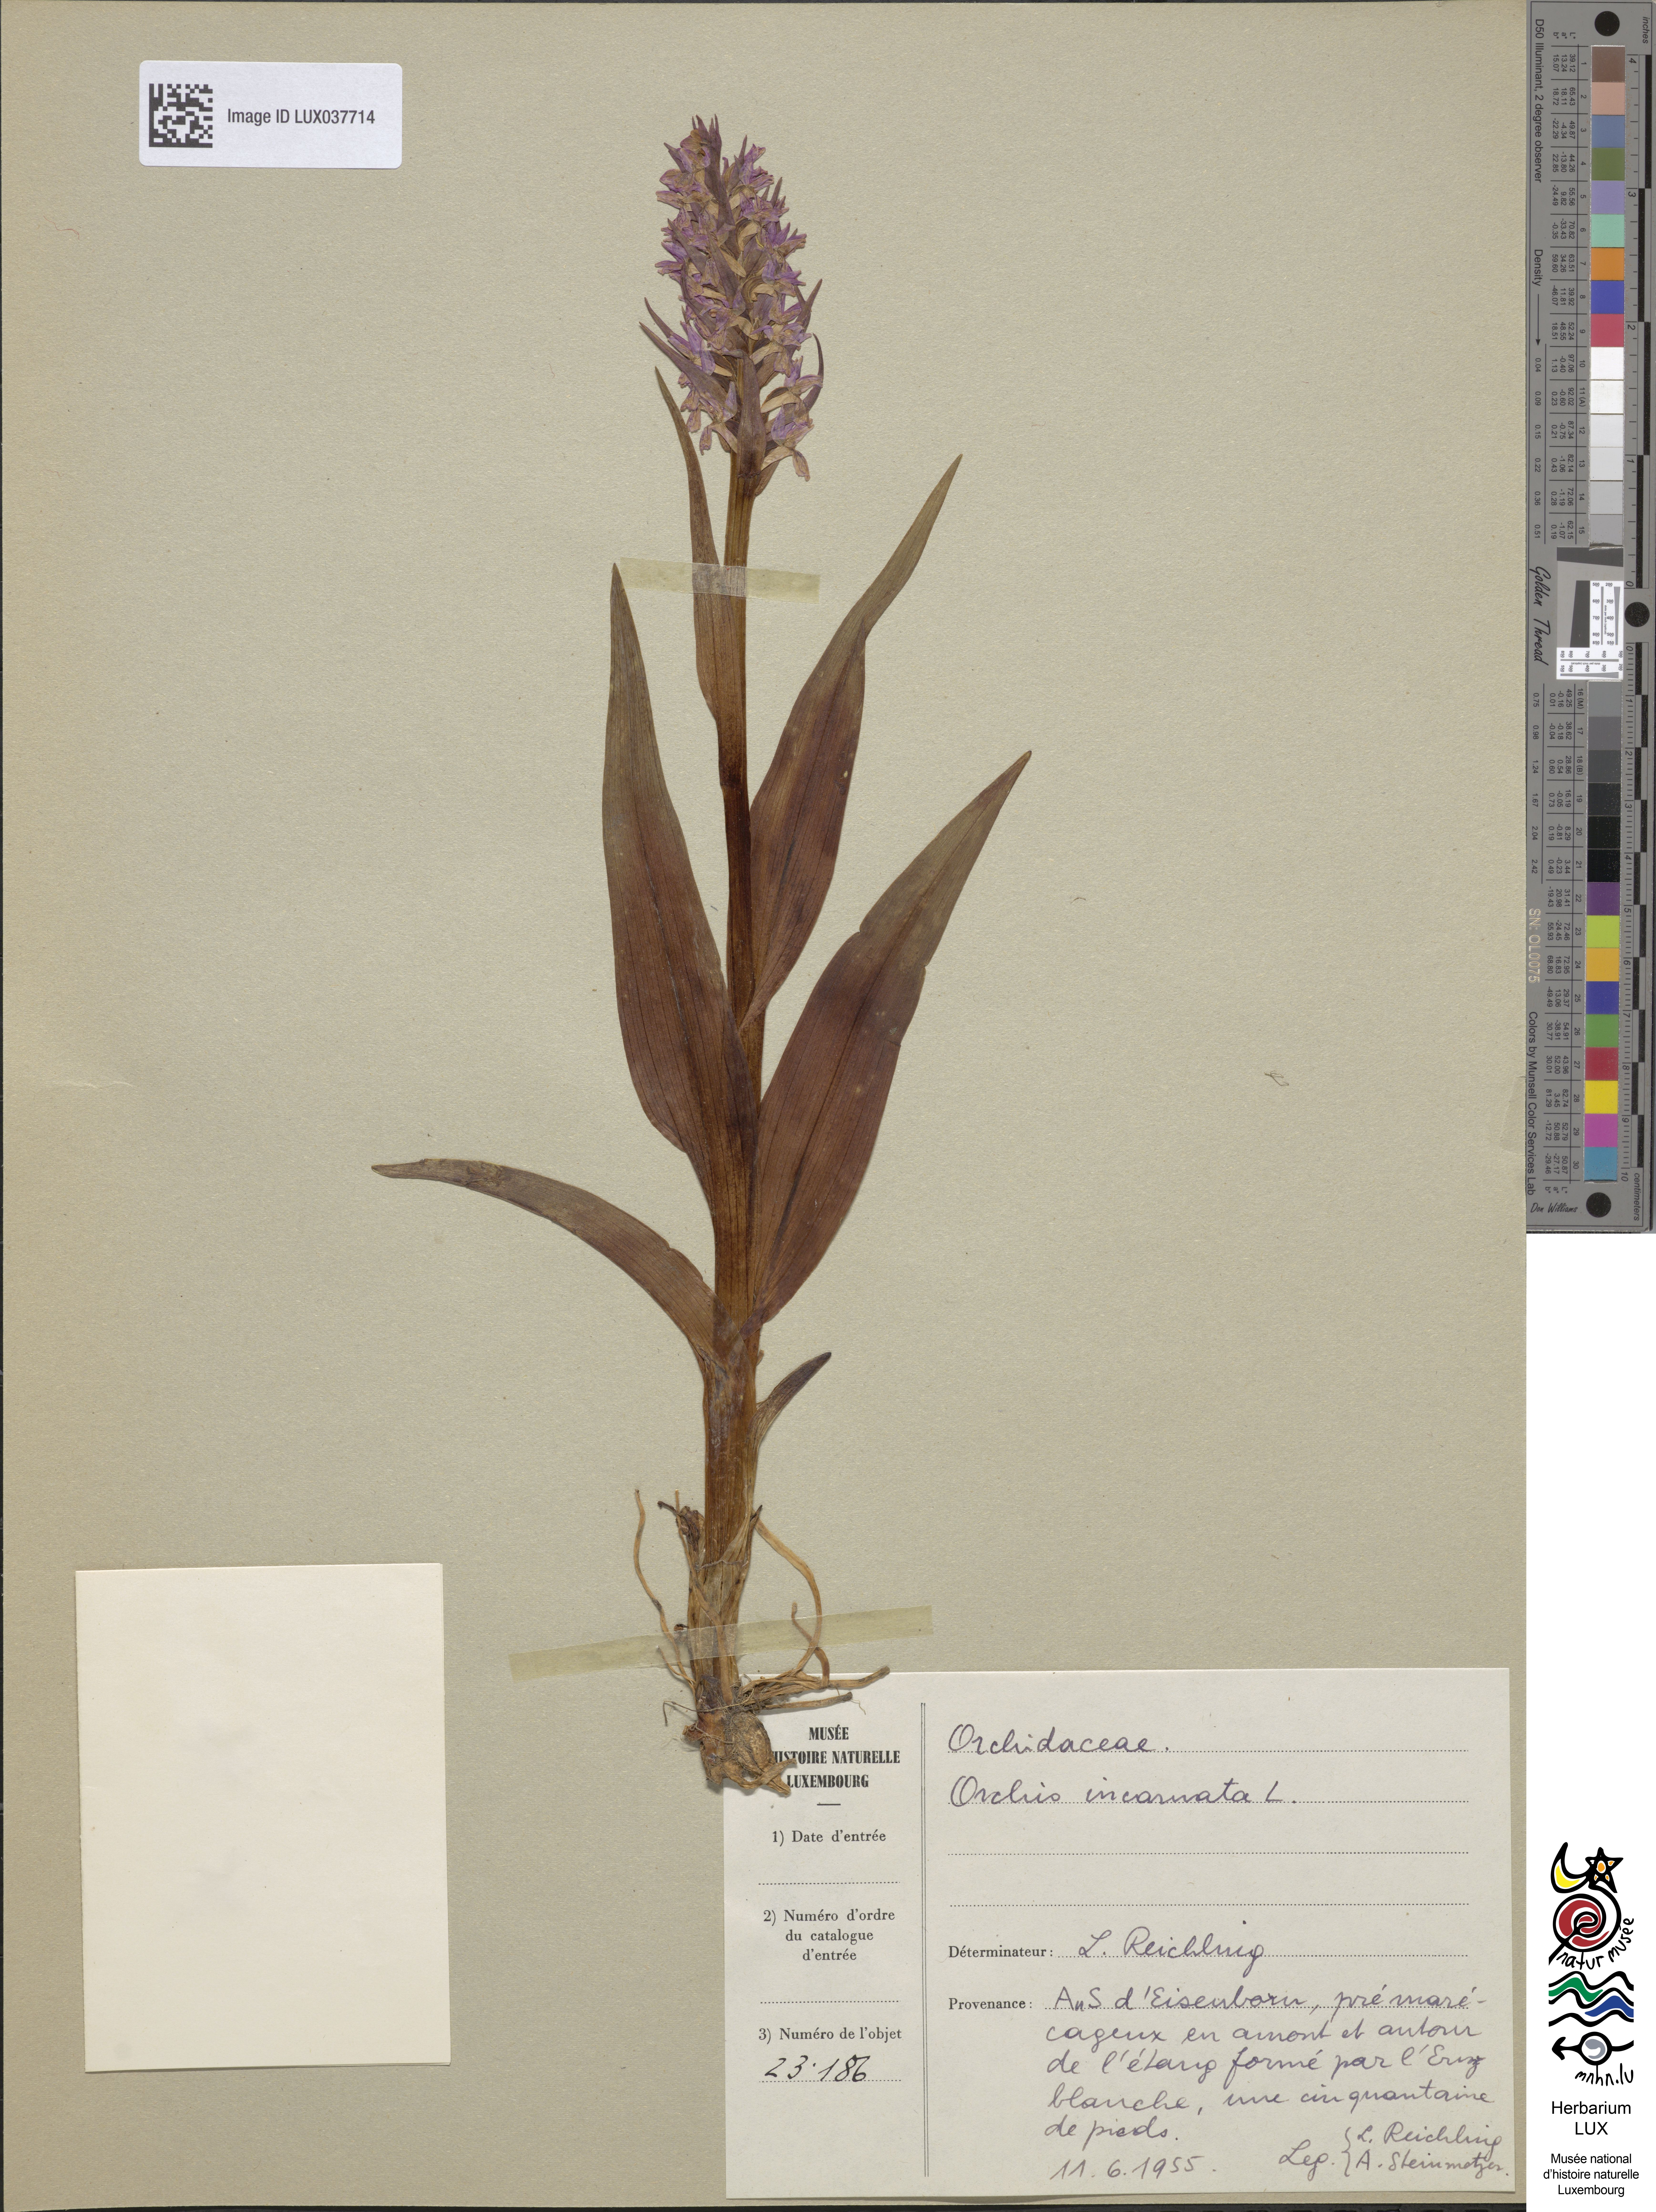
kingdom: Plantae
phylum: Tracheophyta
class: Liliopsida
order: Asparagales
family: Orchidaceae
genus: Dactylorhiza
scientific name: Dactylorhiza incarnata
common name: Early marsh-orchid
